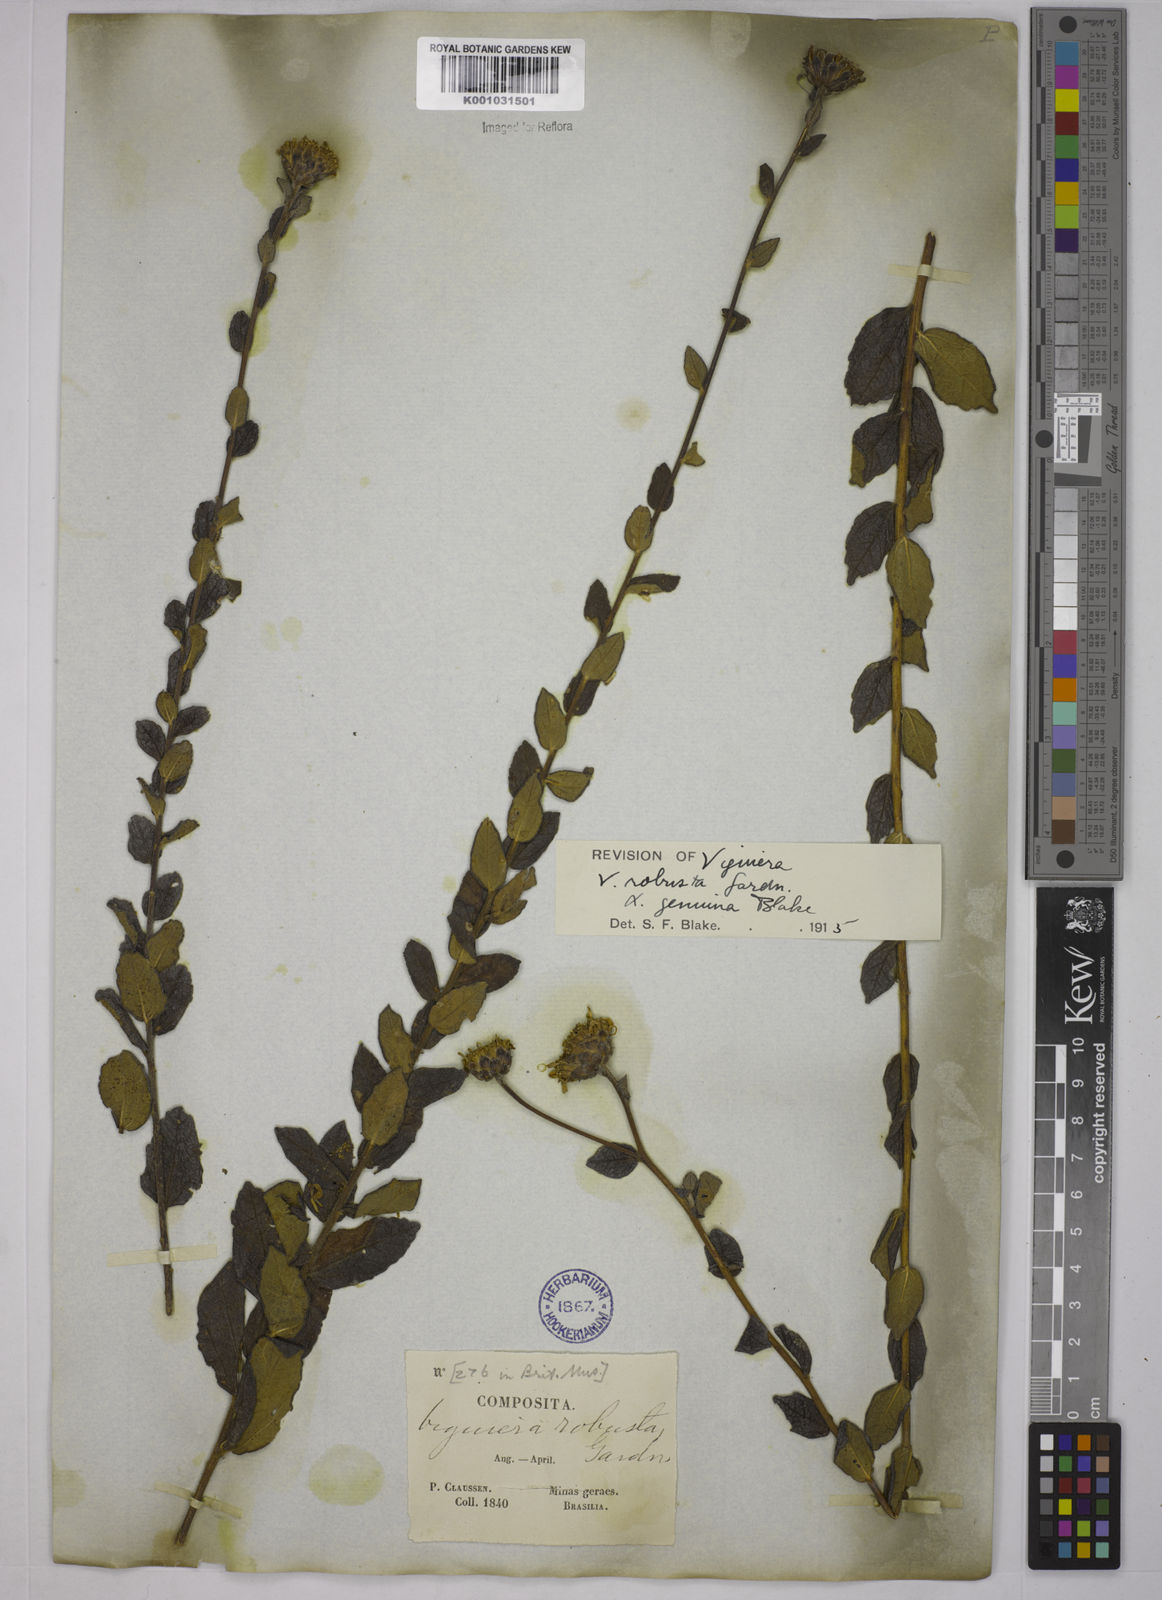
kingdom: Plantae
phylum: Tracheophyta
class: Magnoliopsida
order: Asterales
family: Asteraceae
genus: Aldama
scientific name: Aldama robusta
